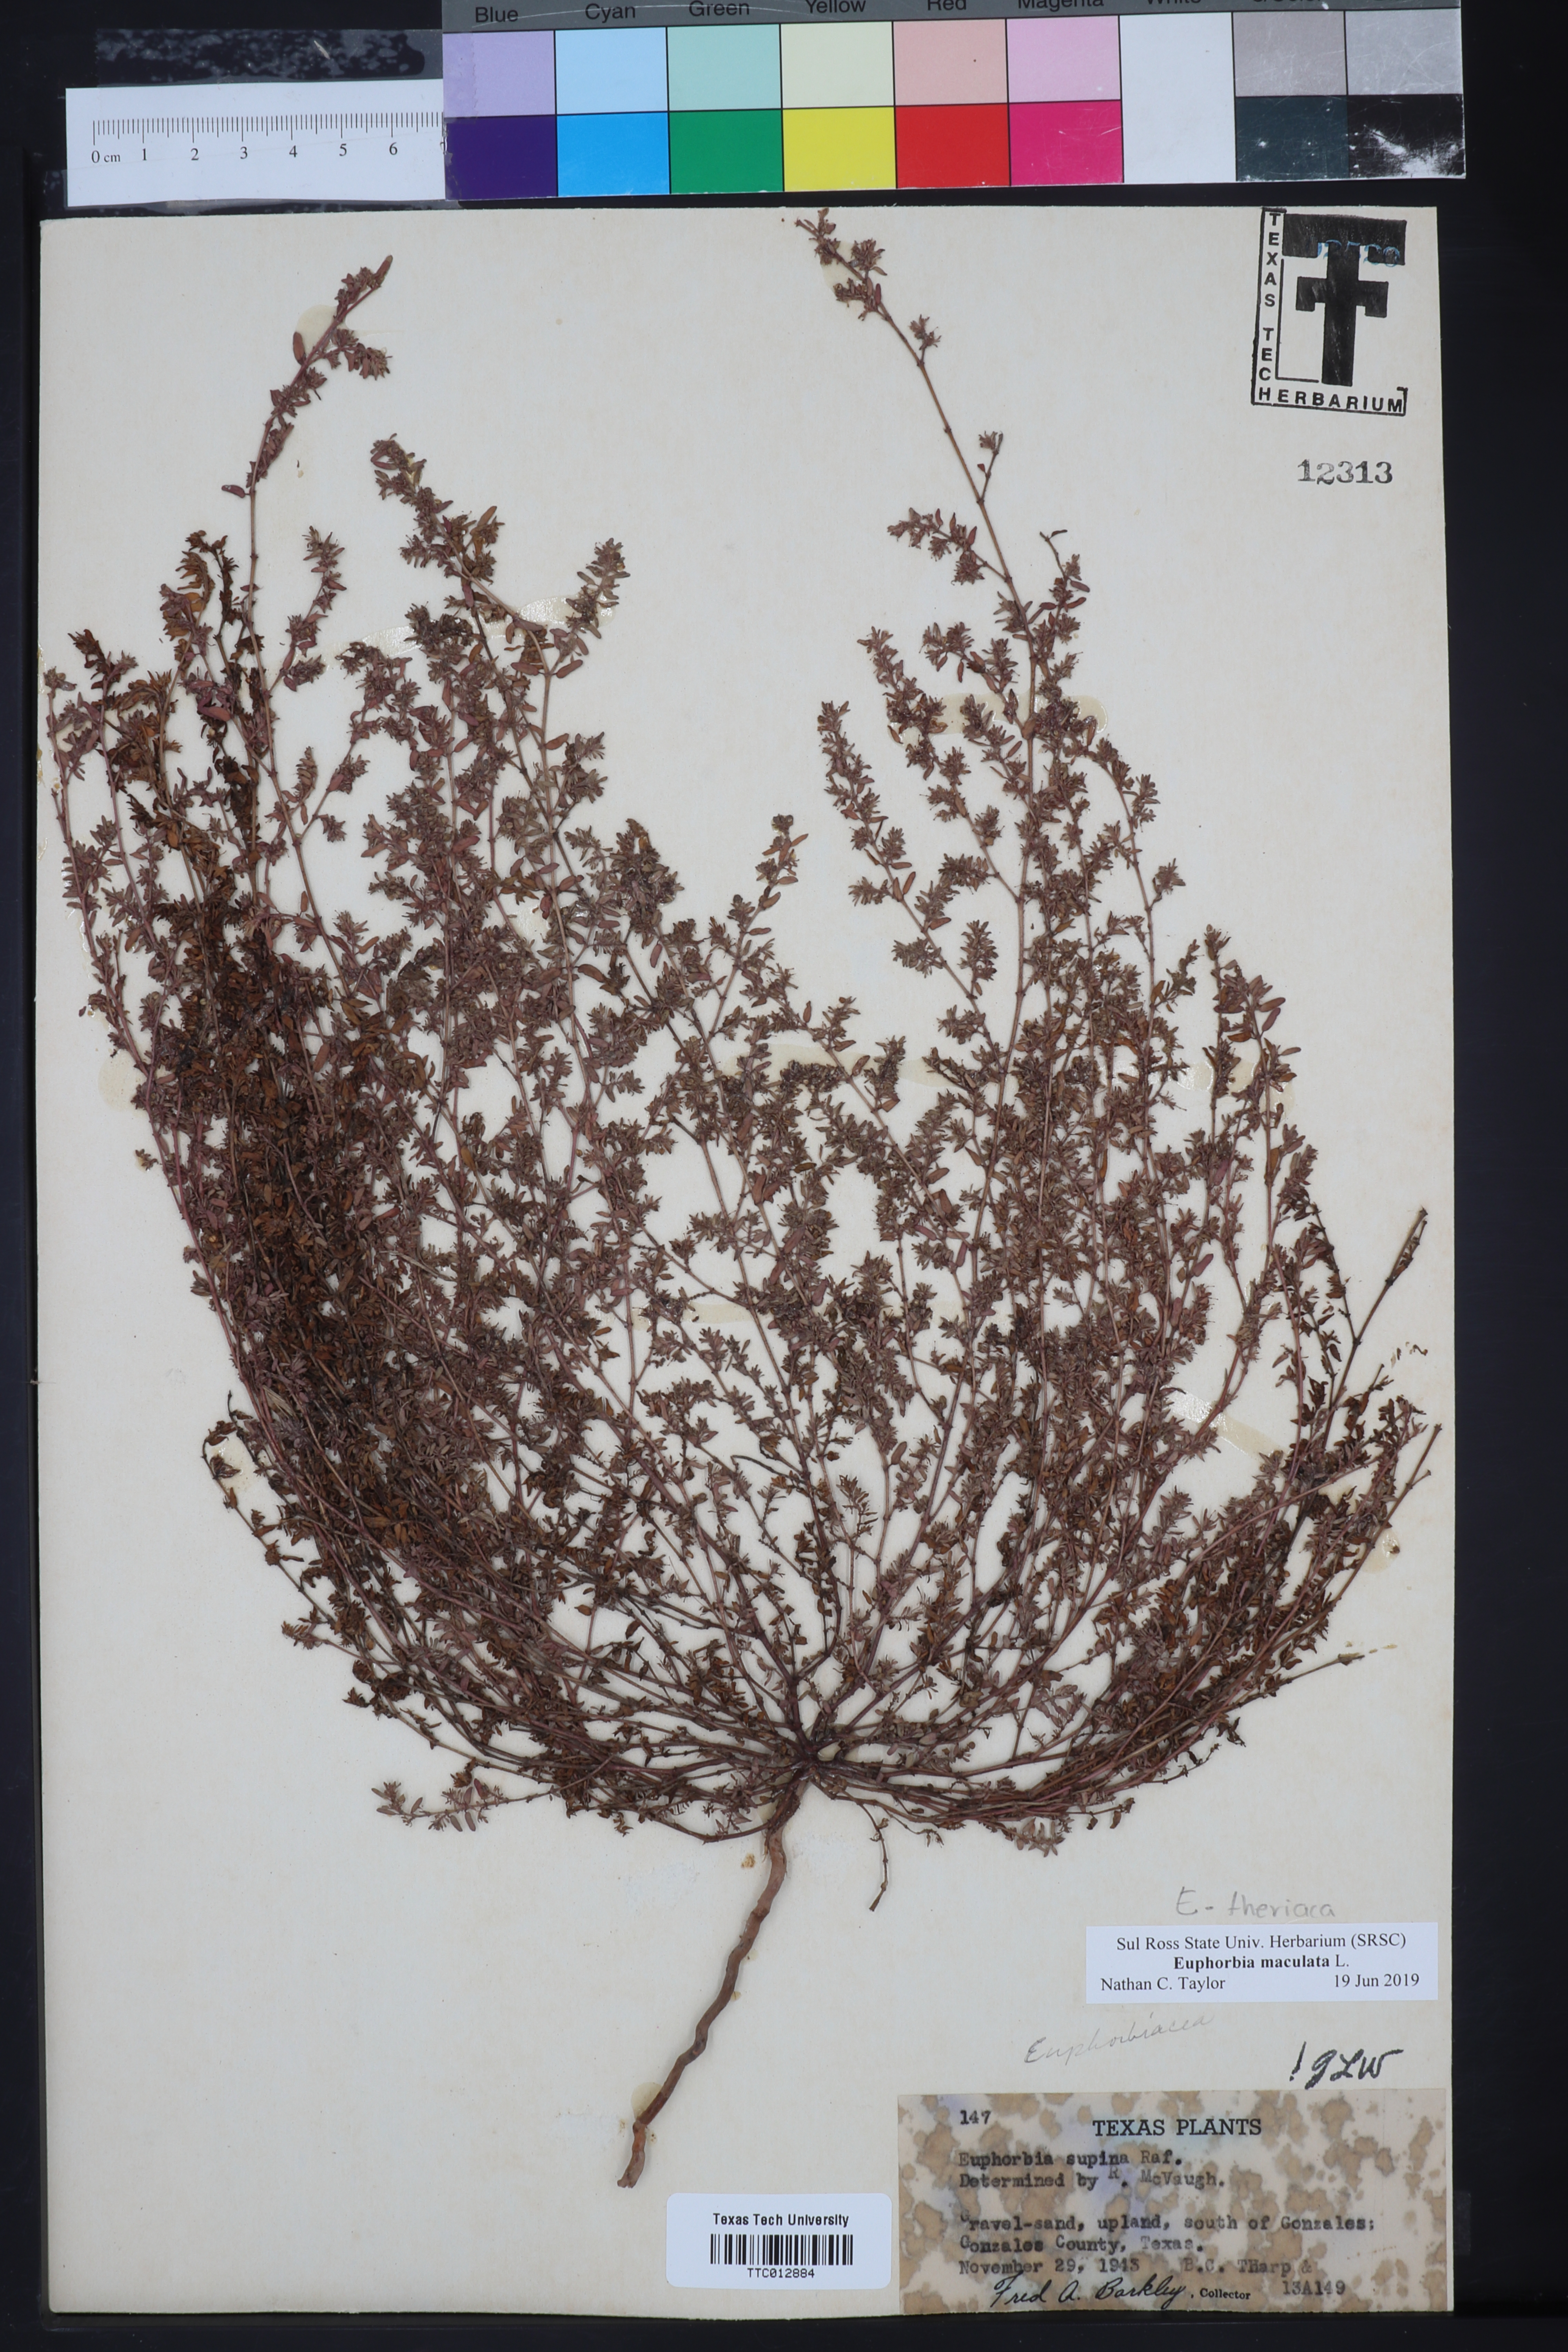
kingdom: Plantae
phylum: Tracheophyta
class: Magnoliopsida
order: Malpighiales
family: Euphorbiaceae
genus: Euphorbia
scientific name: Euphorbia maculata
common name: Spotted spurge
